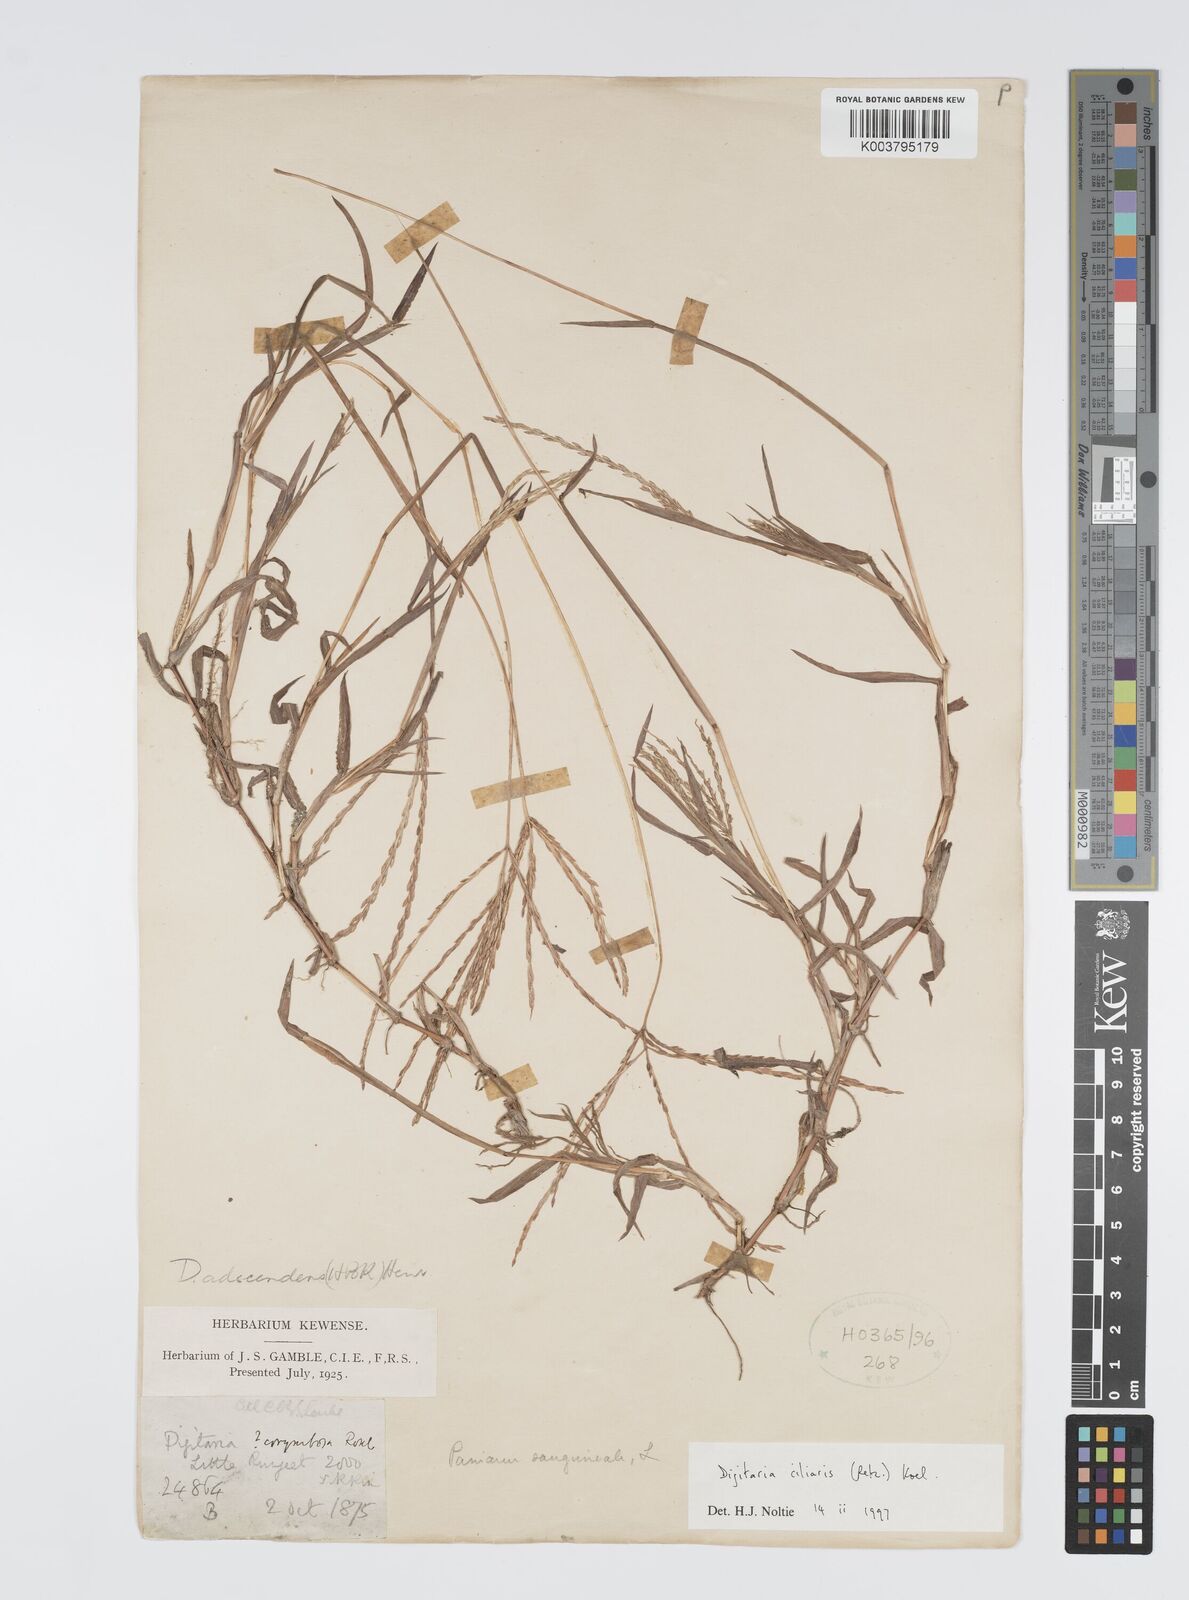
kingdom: Plantae
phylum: Tracheophyta
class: Liliopsida
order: Poales
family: Poaceae
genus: Digitaria
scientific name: Digitaria ciliaris
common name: Tropical finger-grass
